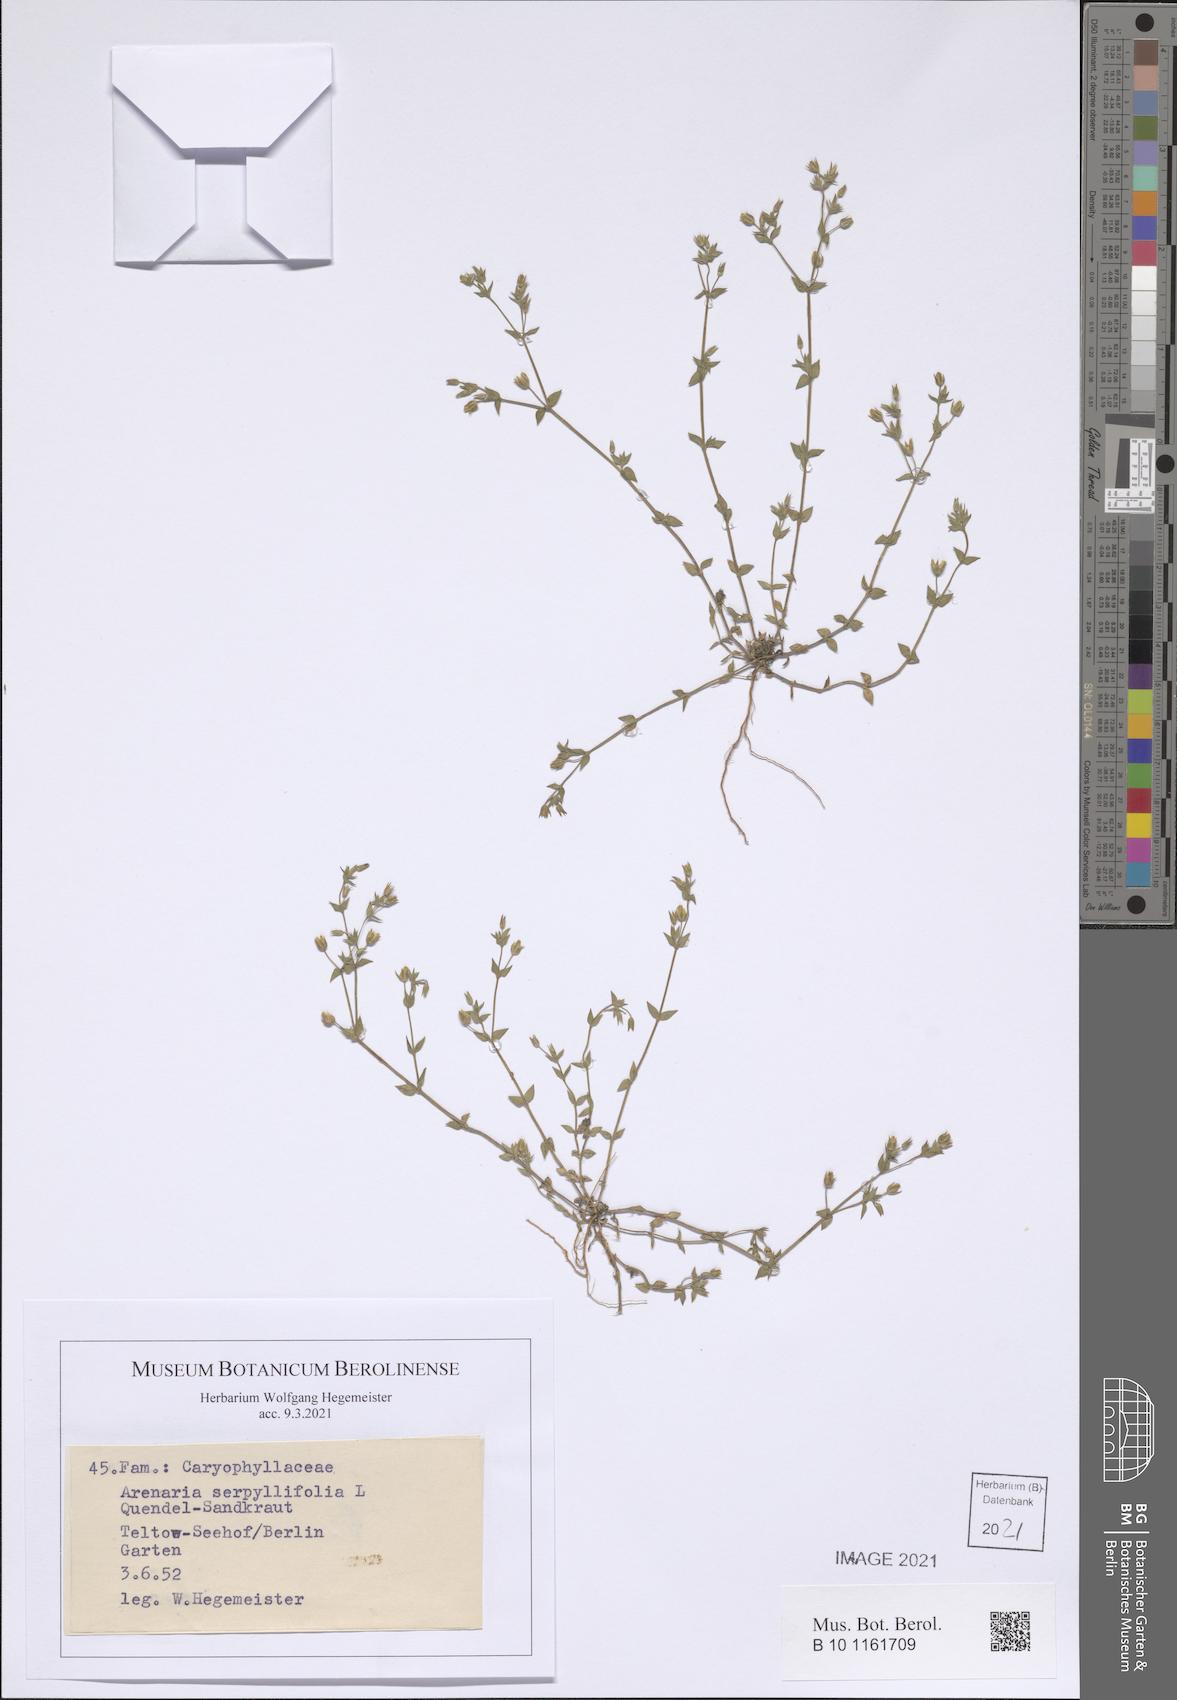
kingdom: Plantae
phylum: Tracheophyta
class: Magnoliopsida
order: Caryophyllales
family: Caryophyllaceae
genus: Arenaria
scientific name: Arenaria serpyllifolia
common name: Thyme-leaved sandwort
